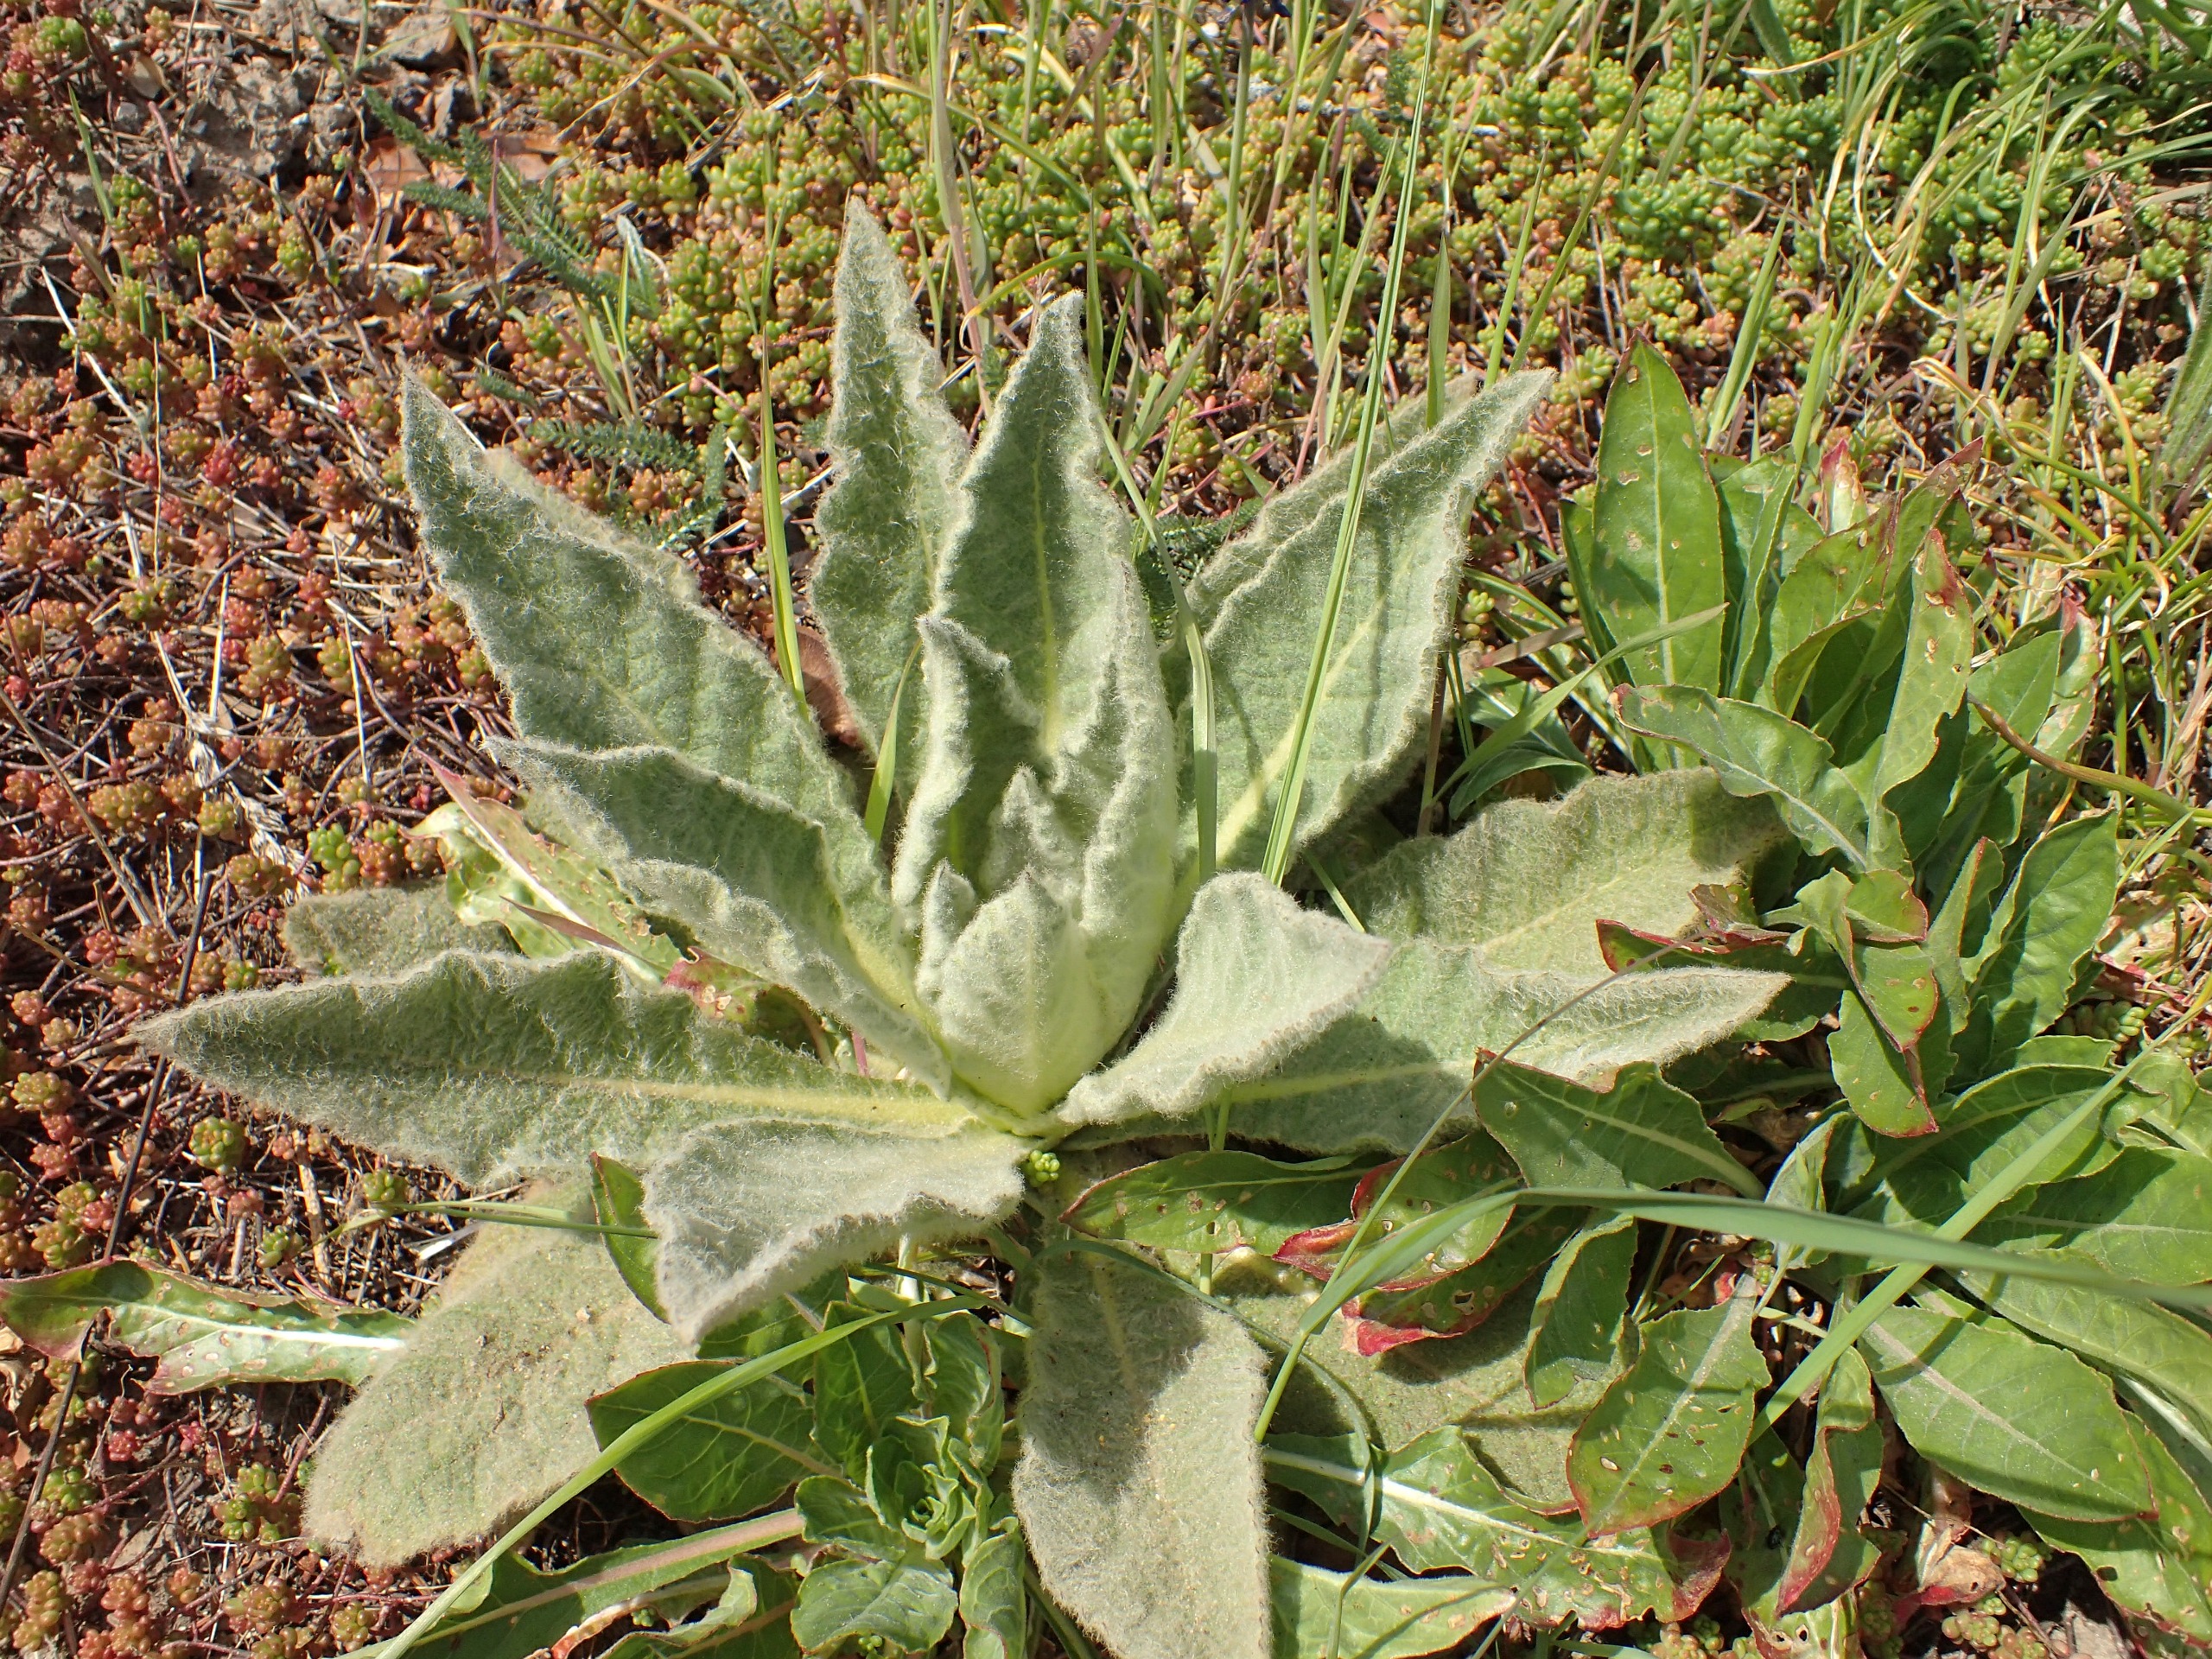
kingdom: Plantae
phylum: Tracheophyta
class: Magnoliopsida
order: Lamiales
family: Scrophulariaceae
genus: Verbascum
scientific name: Verbascum densiflorum
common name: Uldbladet kongelys
